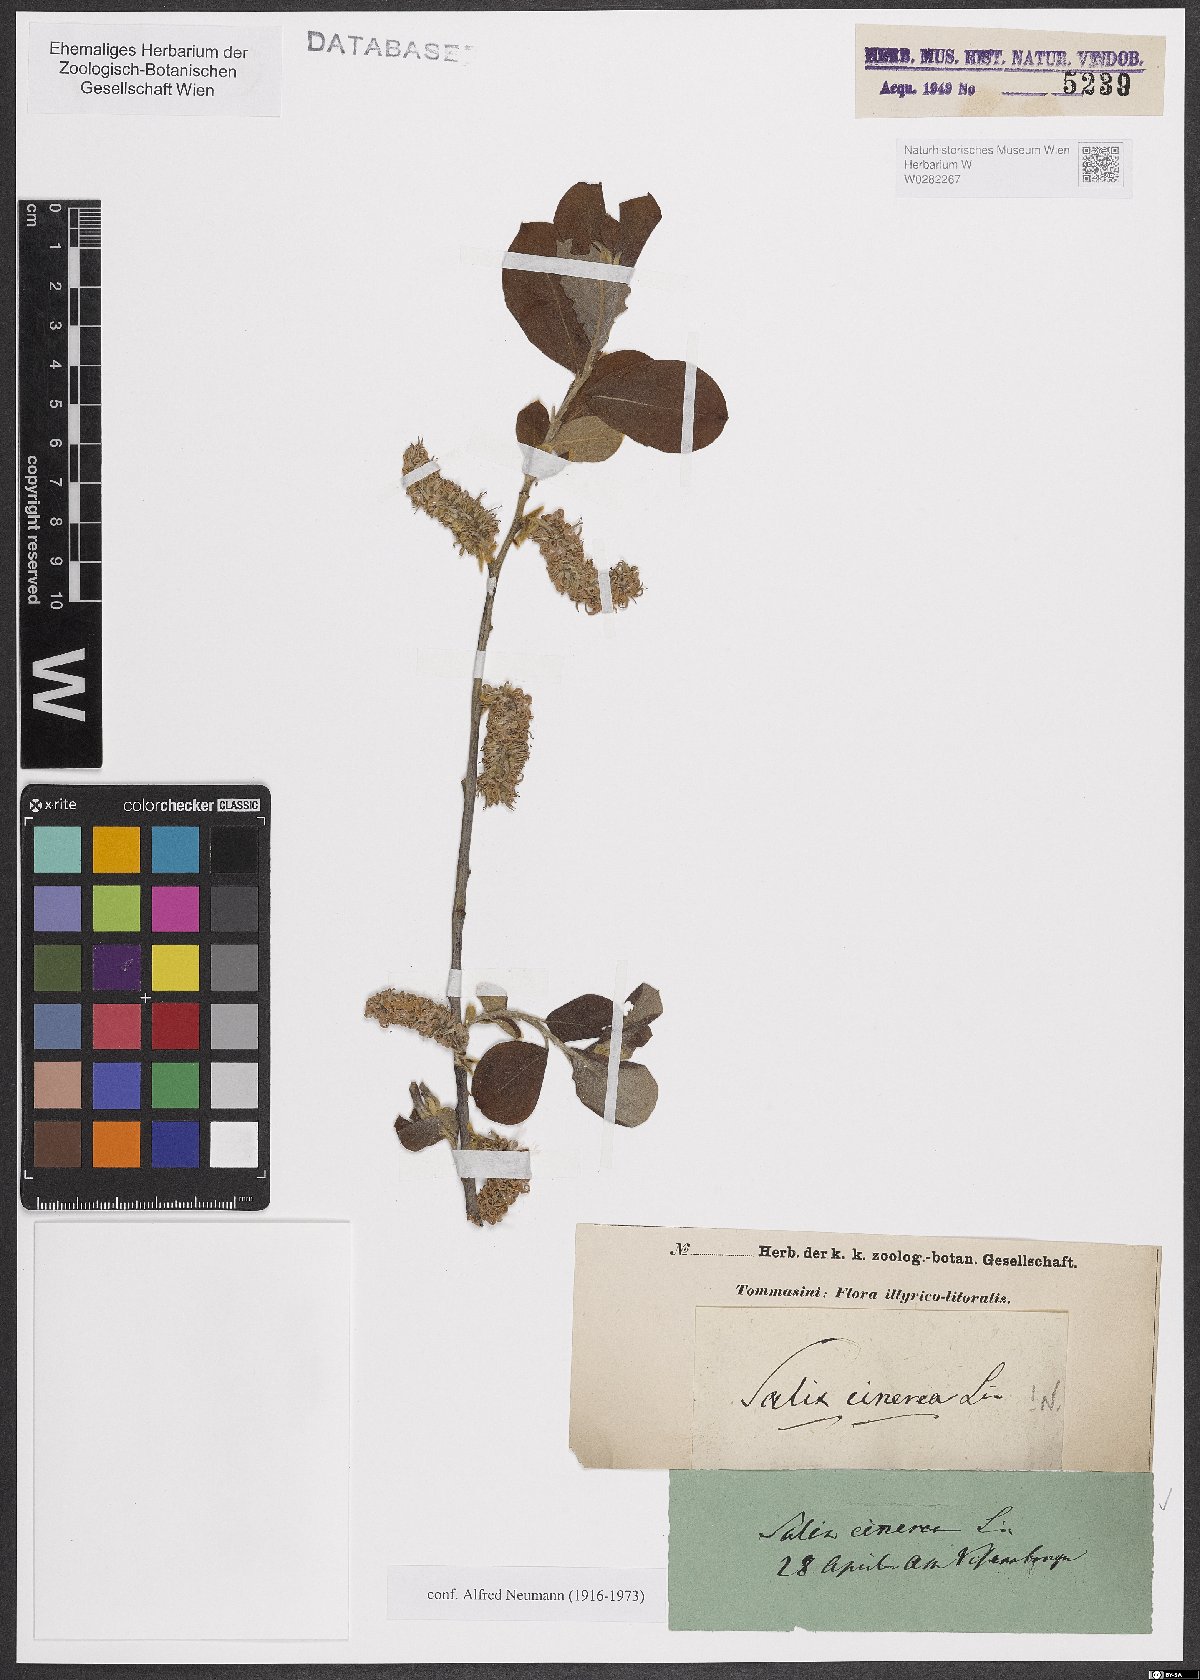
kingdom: Plantae
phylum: Tracheophyta
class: Magnoliopsida
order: Malpighiales
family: Salicaceae
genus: Salix
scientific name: Salix cinerea
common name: Common sallow
